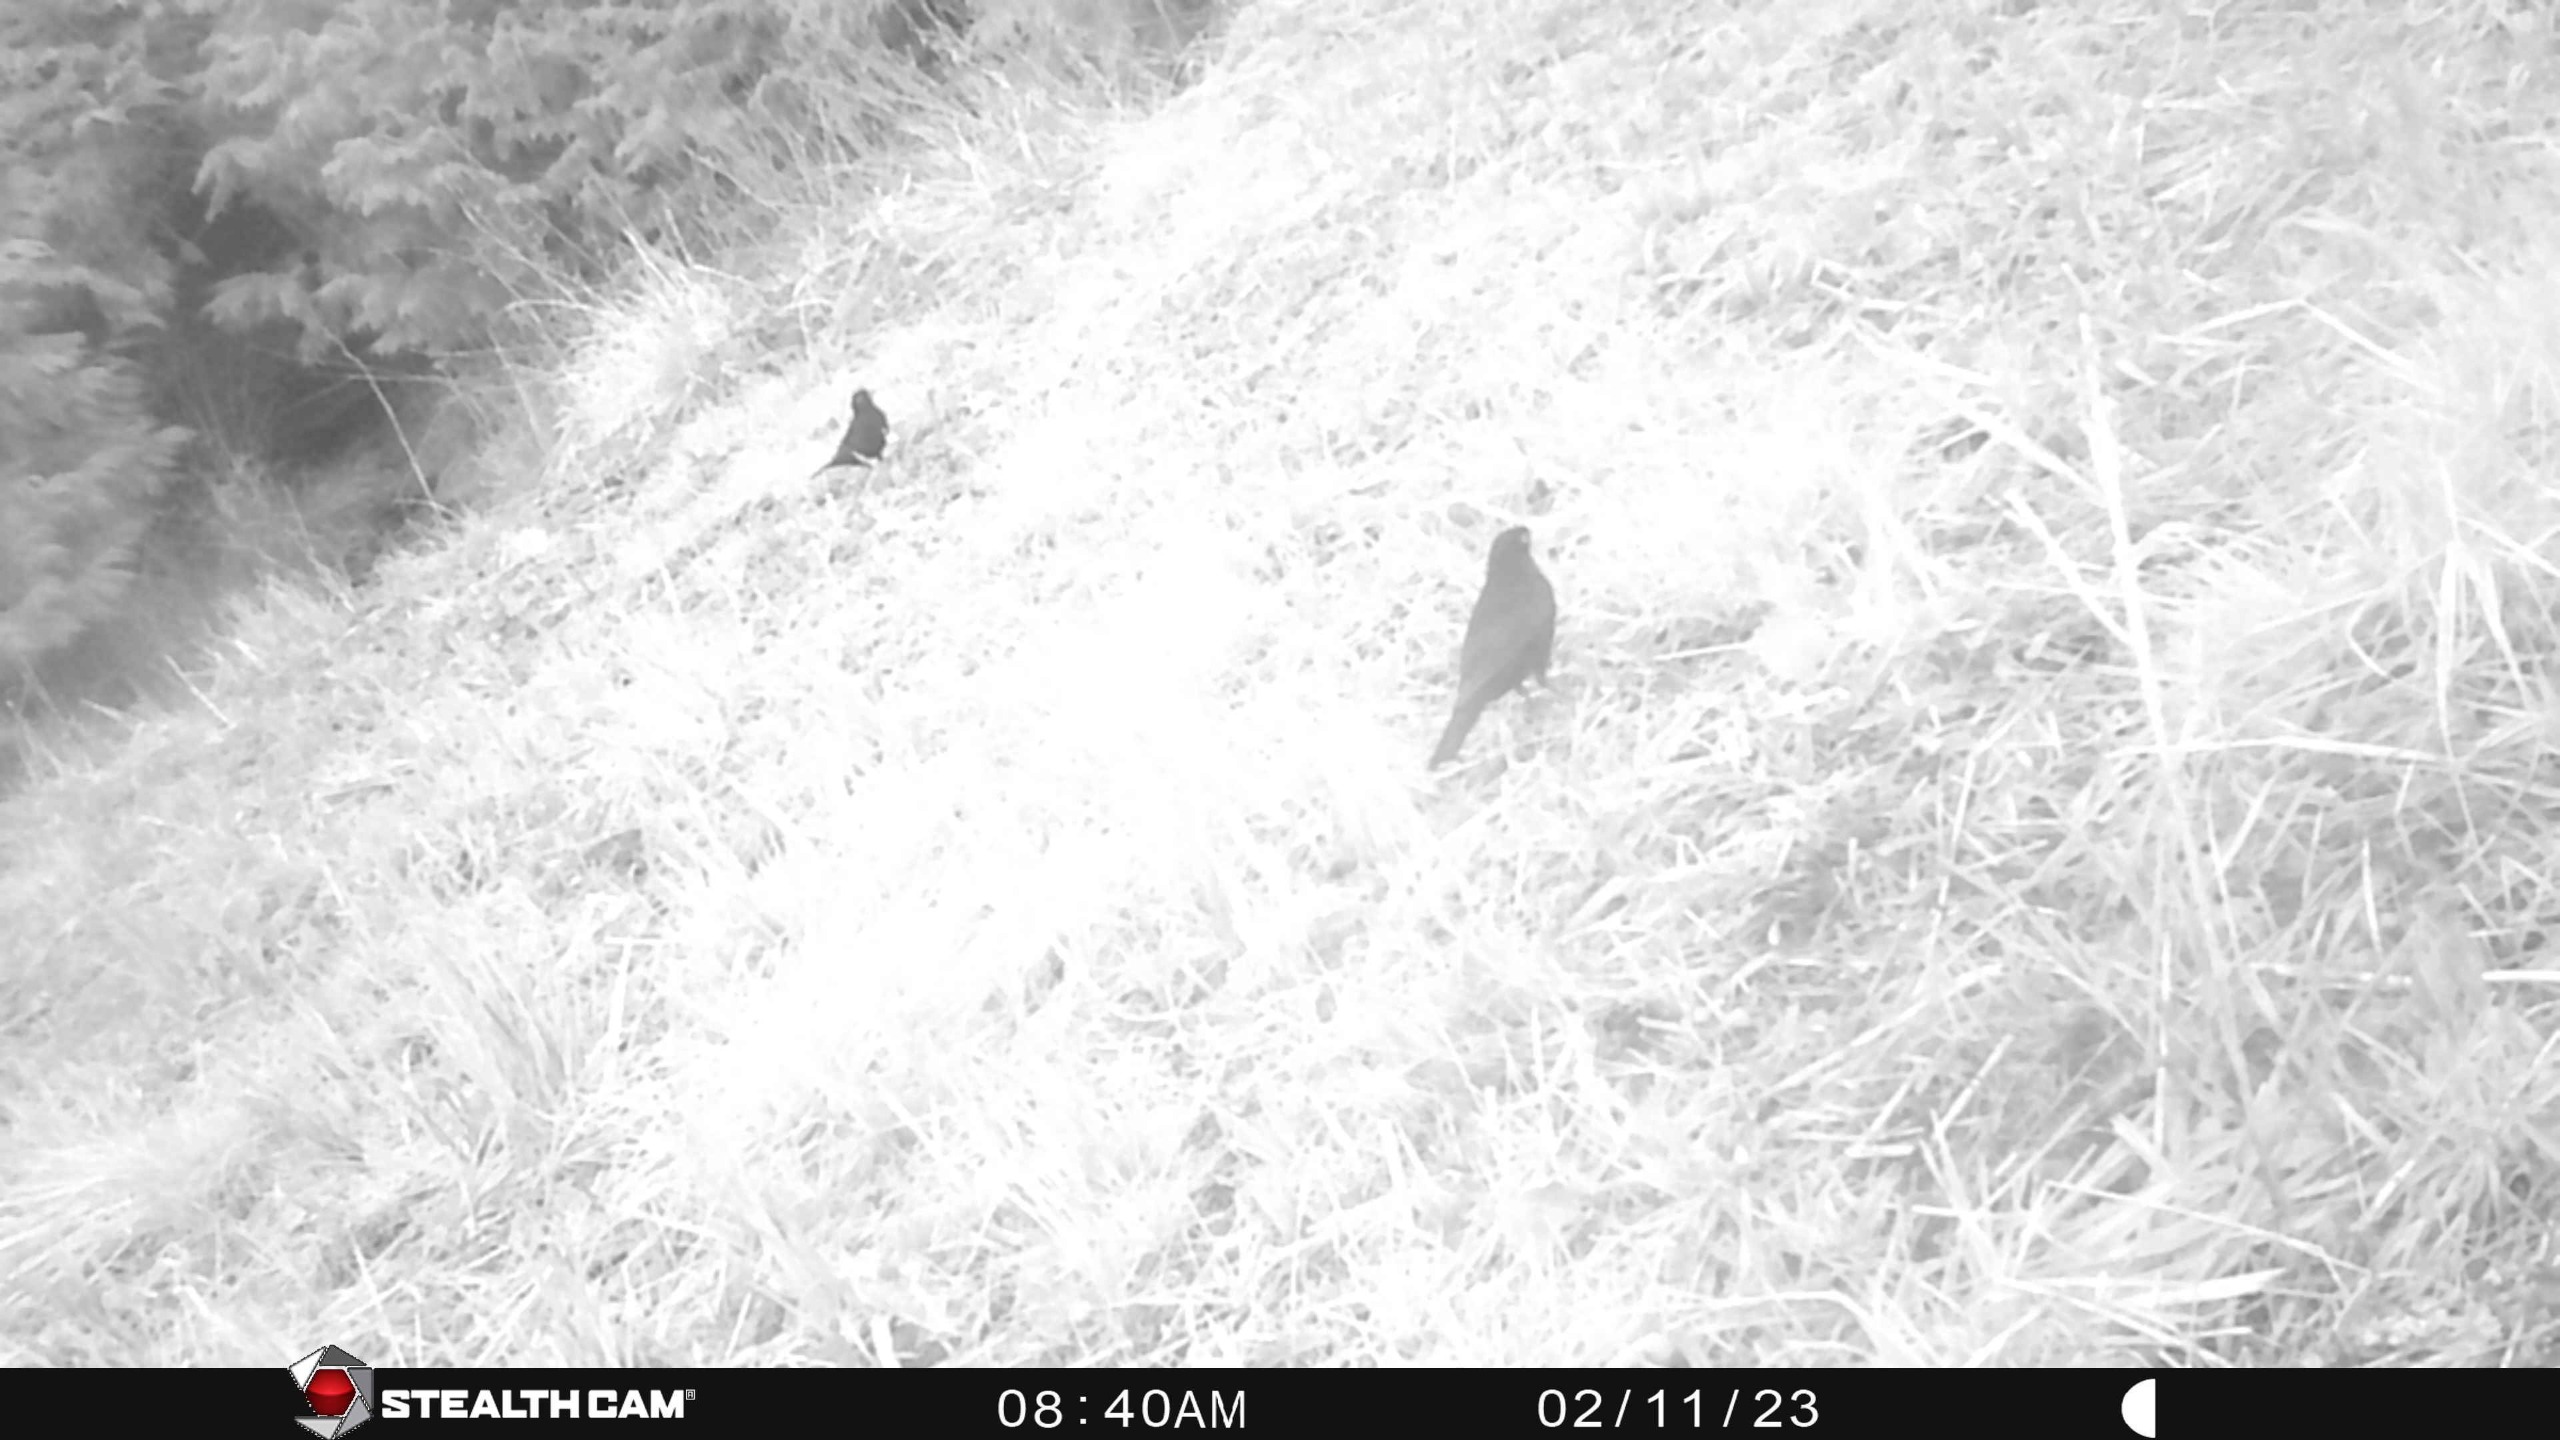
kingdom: Animalia
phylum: Chordata
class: Aves
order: Passeriformes
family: Turdidae
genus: Turdus
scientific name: Turdus merula
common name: Solsort
